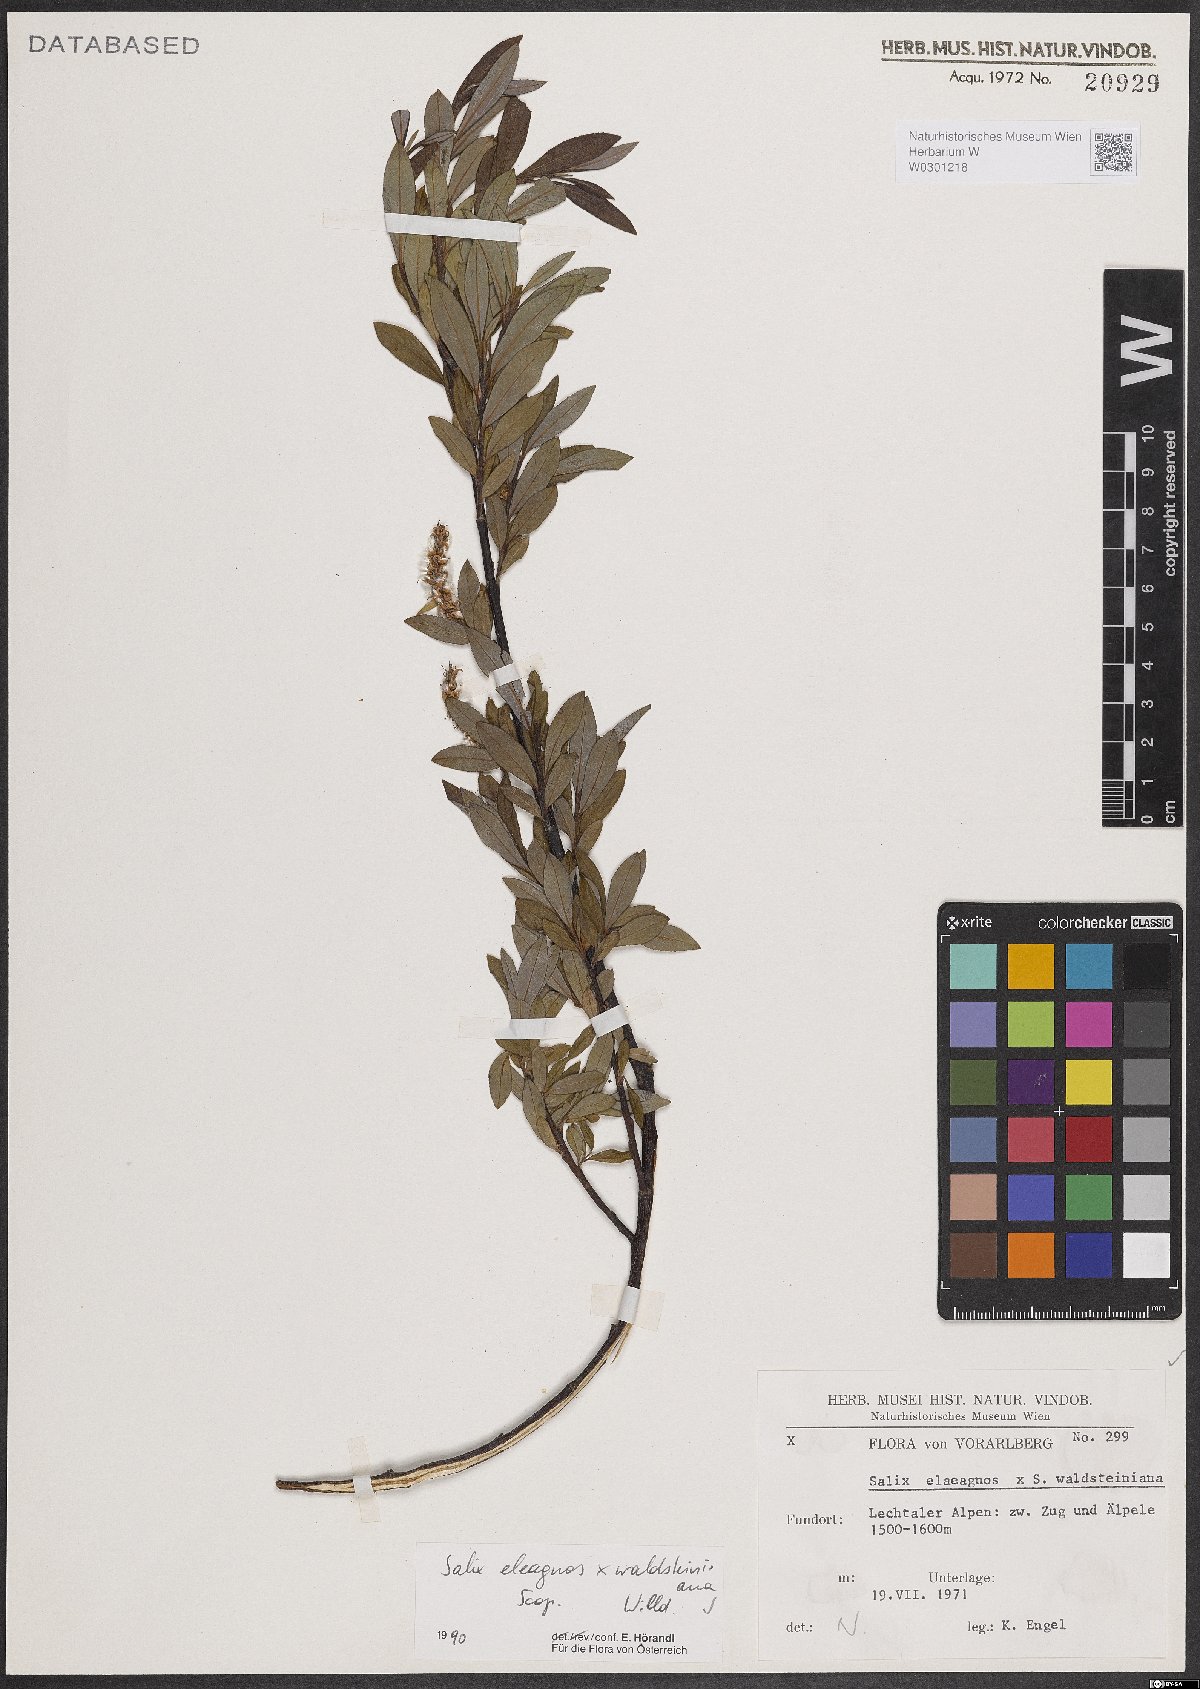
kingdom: Plantae
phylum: Tracheophyta
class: Magnoliopsida
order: Malpighiales
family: Salicaceae
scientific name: Salicaceae
